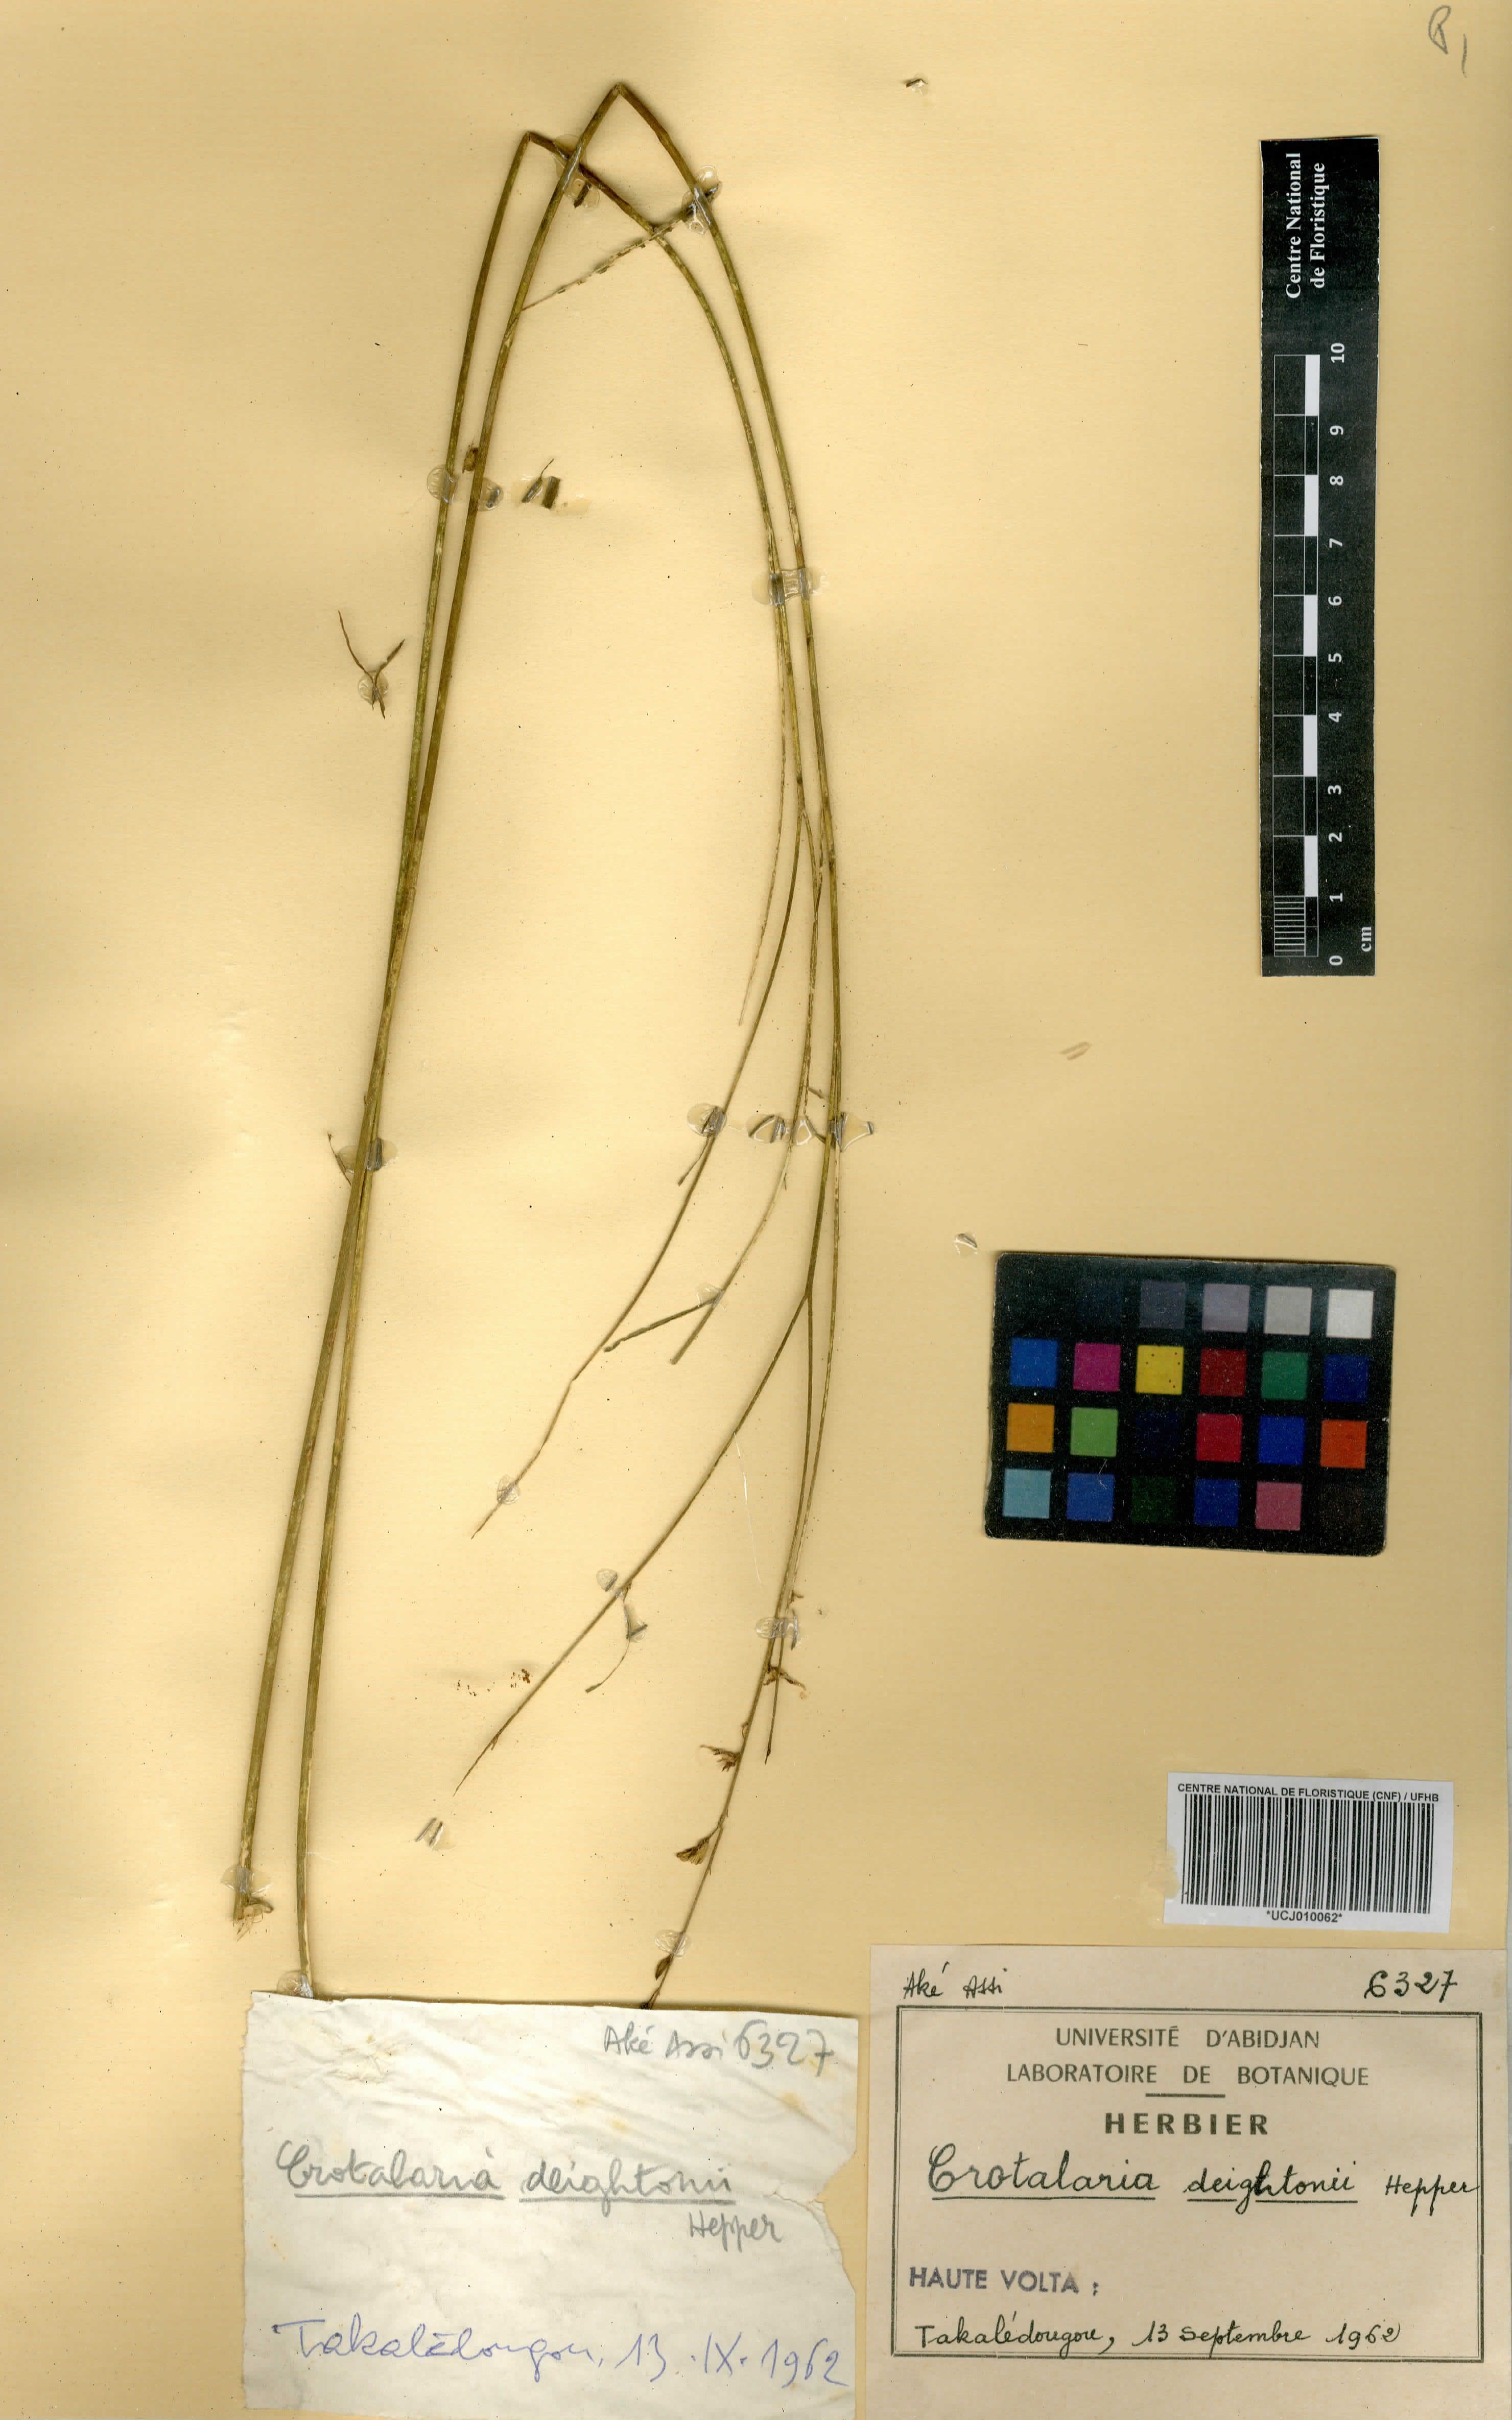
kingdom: Plantae
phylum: Tracheophyta
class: Magnoliopsida
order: Fabales
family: Fabaceae
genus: Crotalaria
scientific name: Crotalaria deightonii
